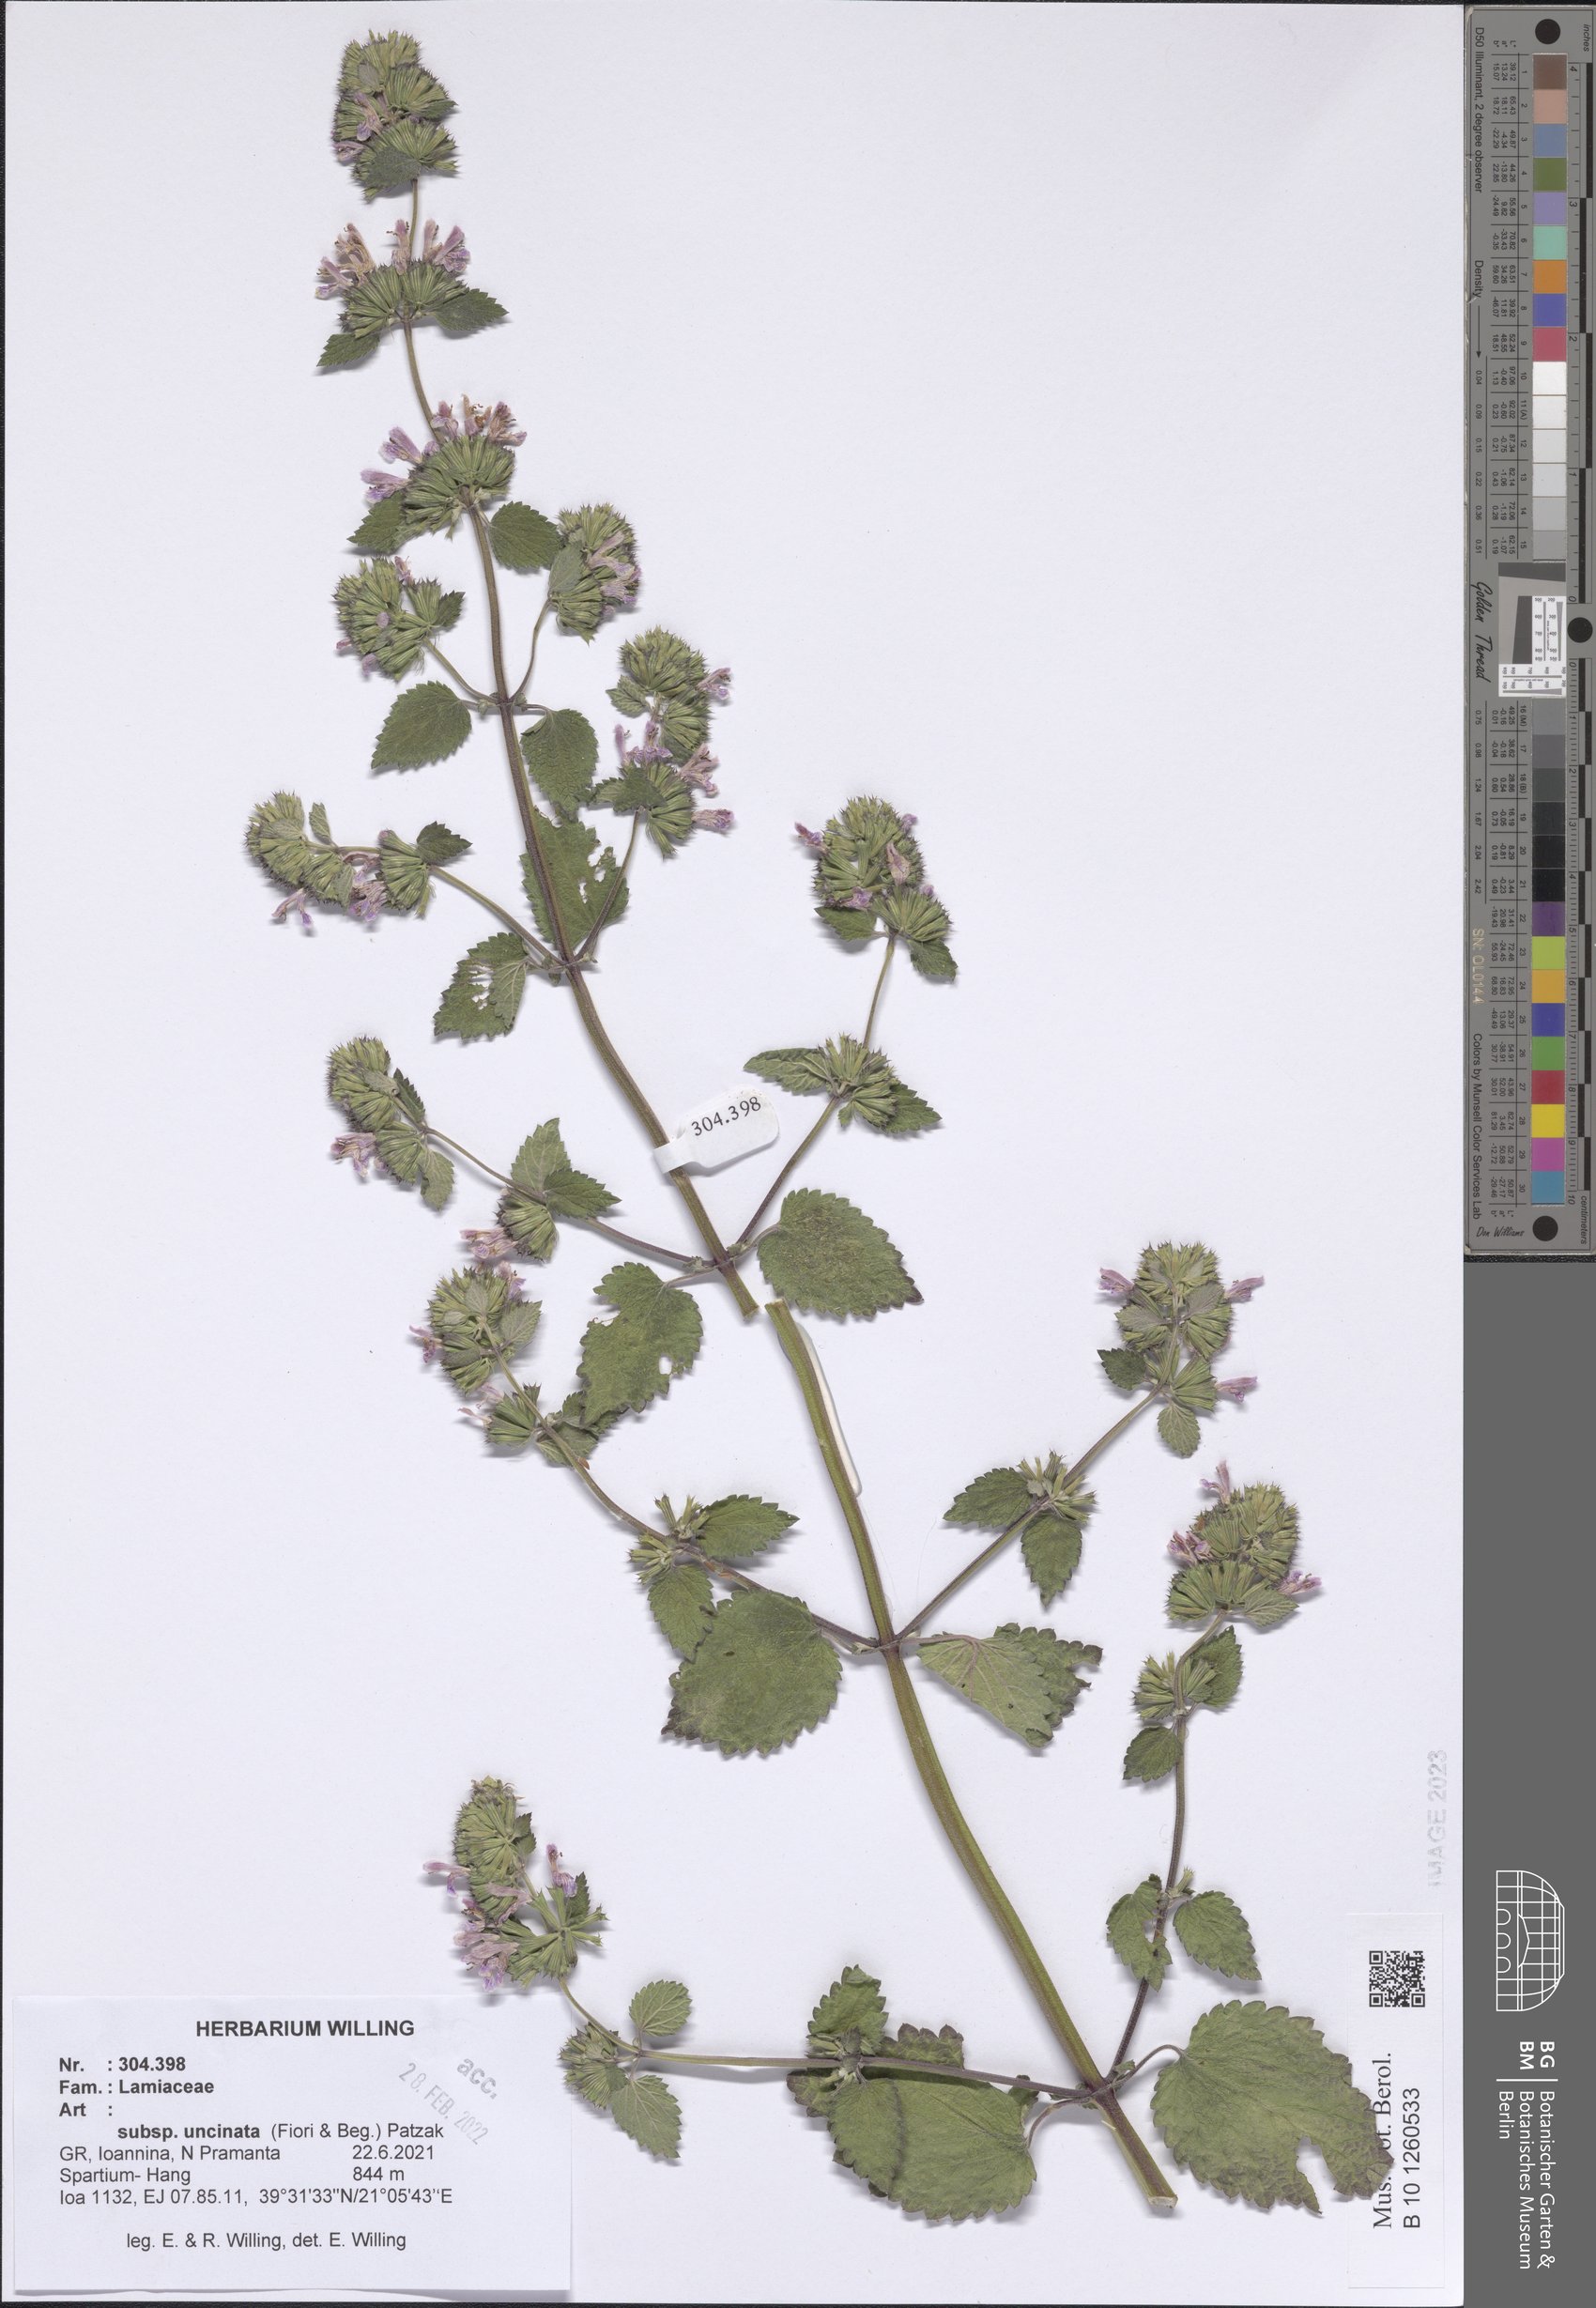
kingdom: Plantae
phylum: Tracheophyta
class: Magnoliopsida
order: Lamiales
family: Lamiaceae
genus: Ballota
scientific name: Ballota nigra
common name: Black horehound
